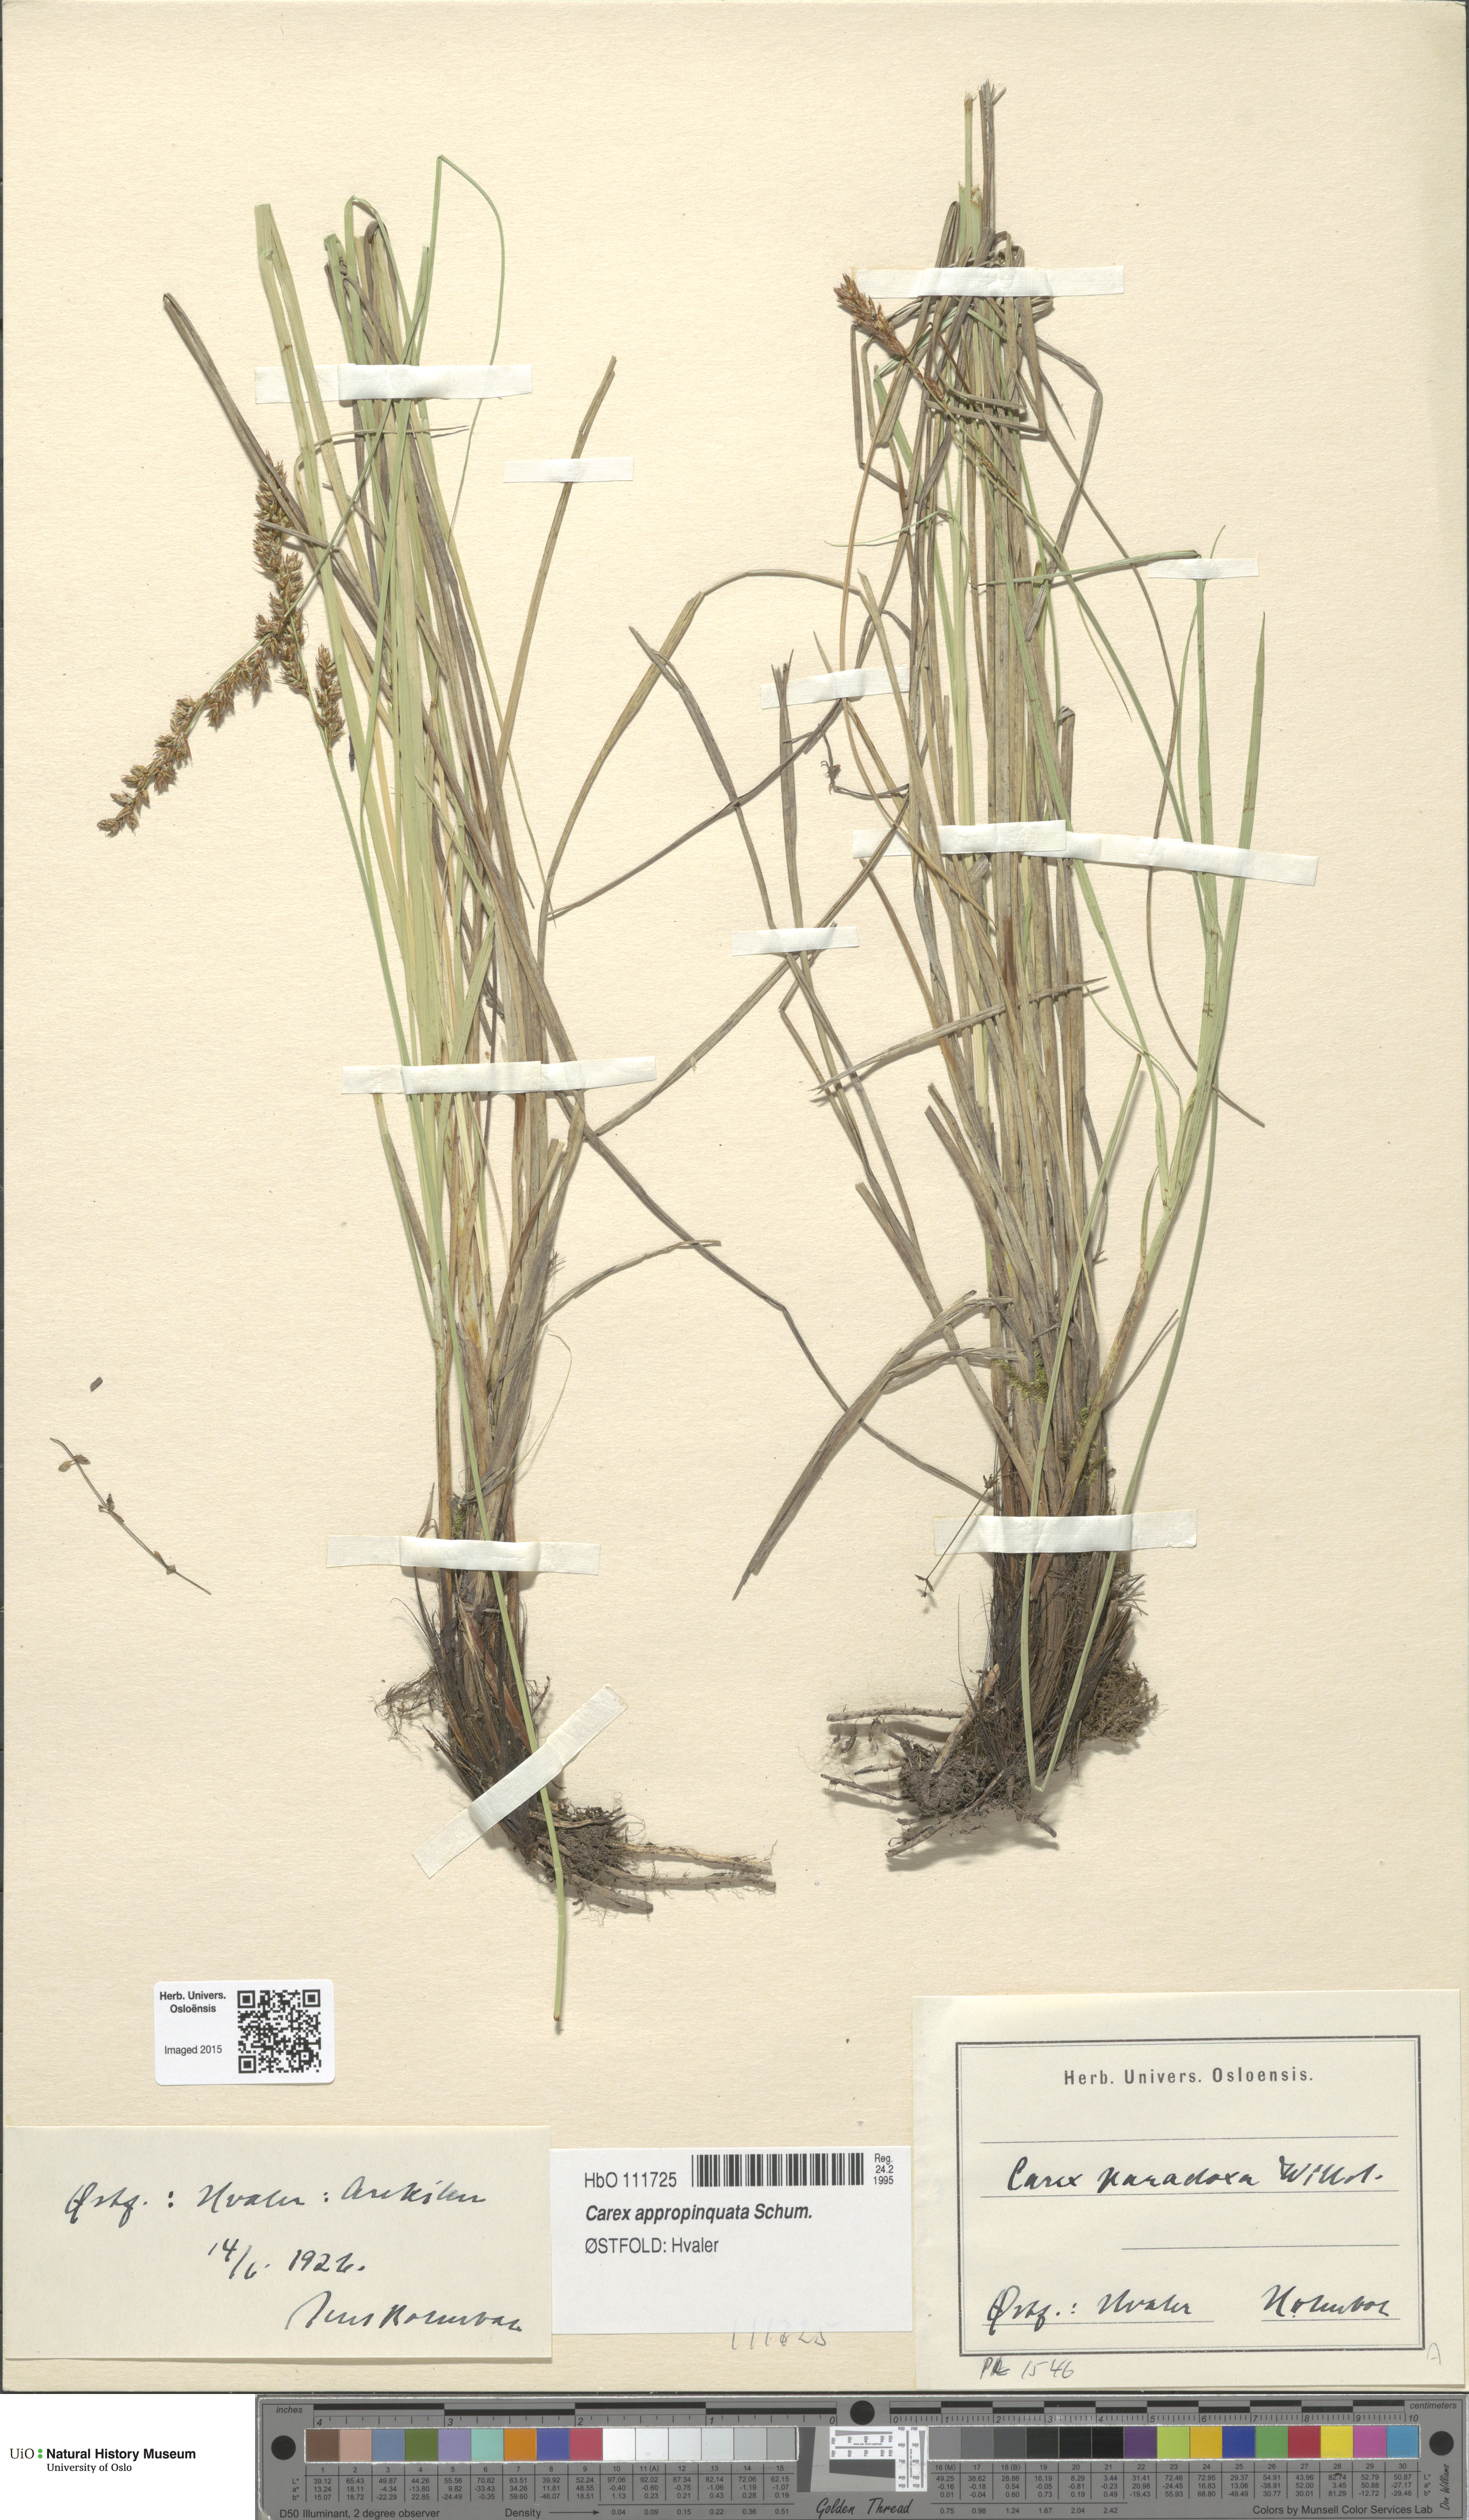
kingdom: Plantae
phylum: Tracheophyta
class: Liliopsida
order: Poales
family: Cyperaceae
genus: Carex
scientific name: Carex appropinquata
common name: Fibrous tussock-sedge
